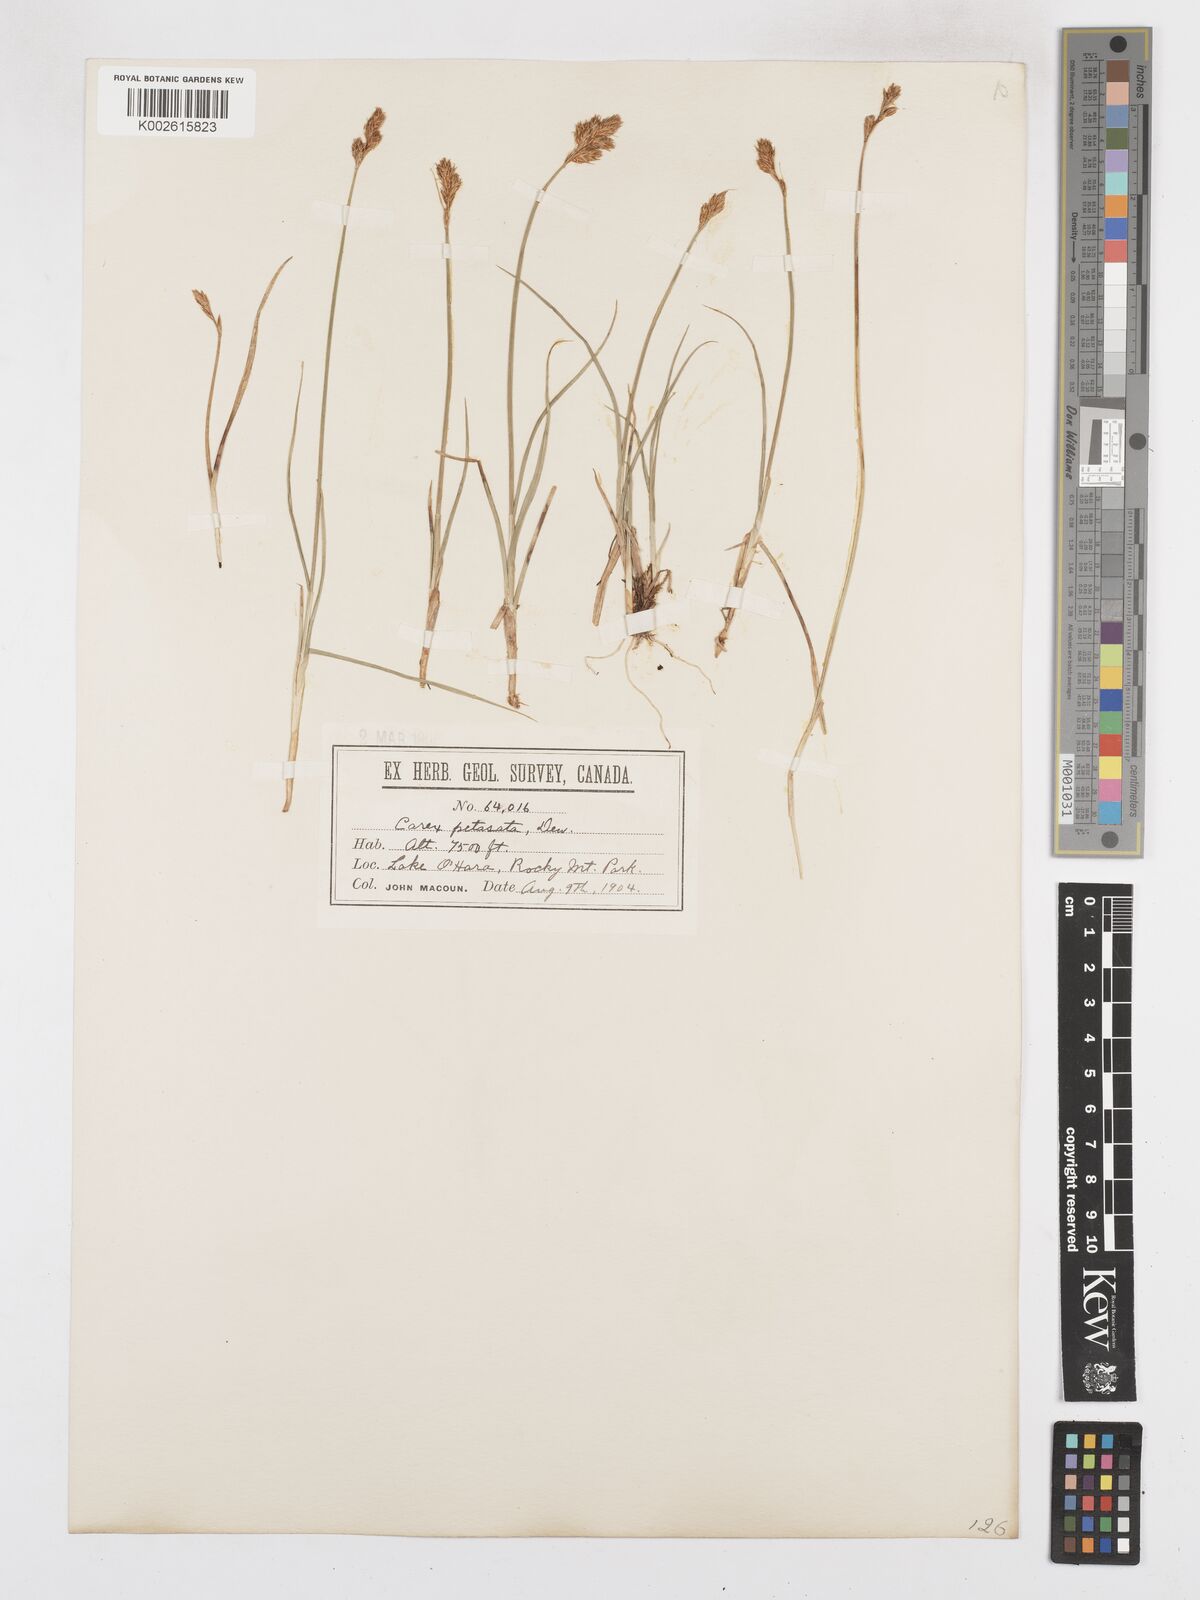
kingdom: Plantae
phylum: Tracheophyta
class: Liliopsida
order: Poales
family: Cyperaceae
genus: Carex
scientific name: Carex petasata
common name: Liddon's sedge
